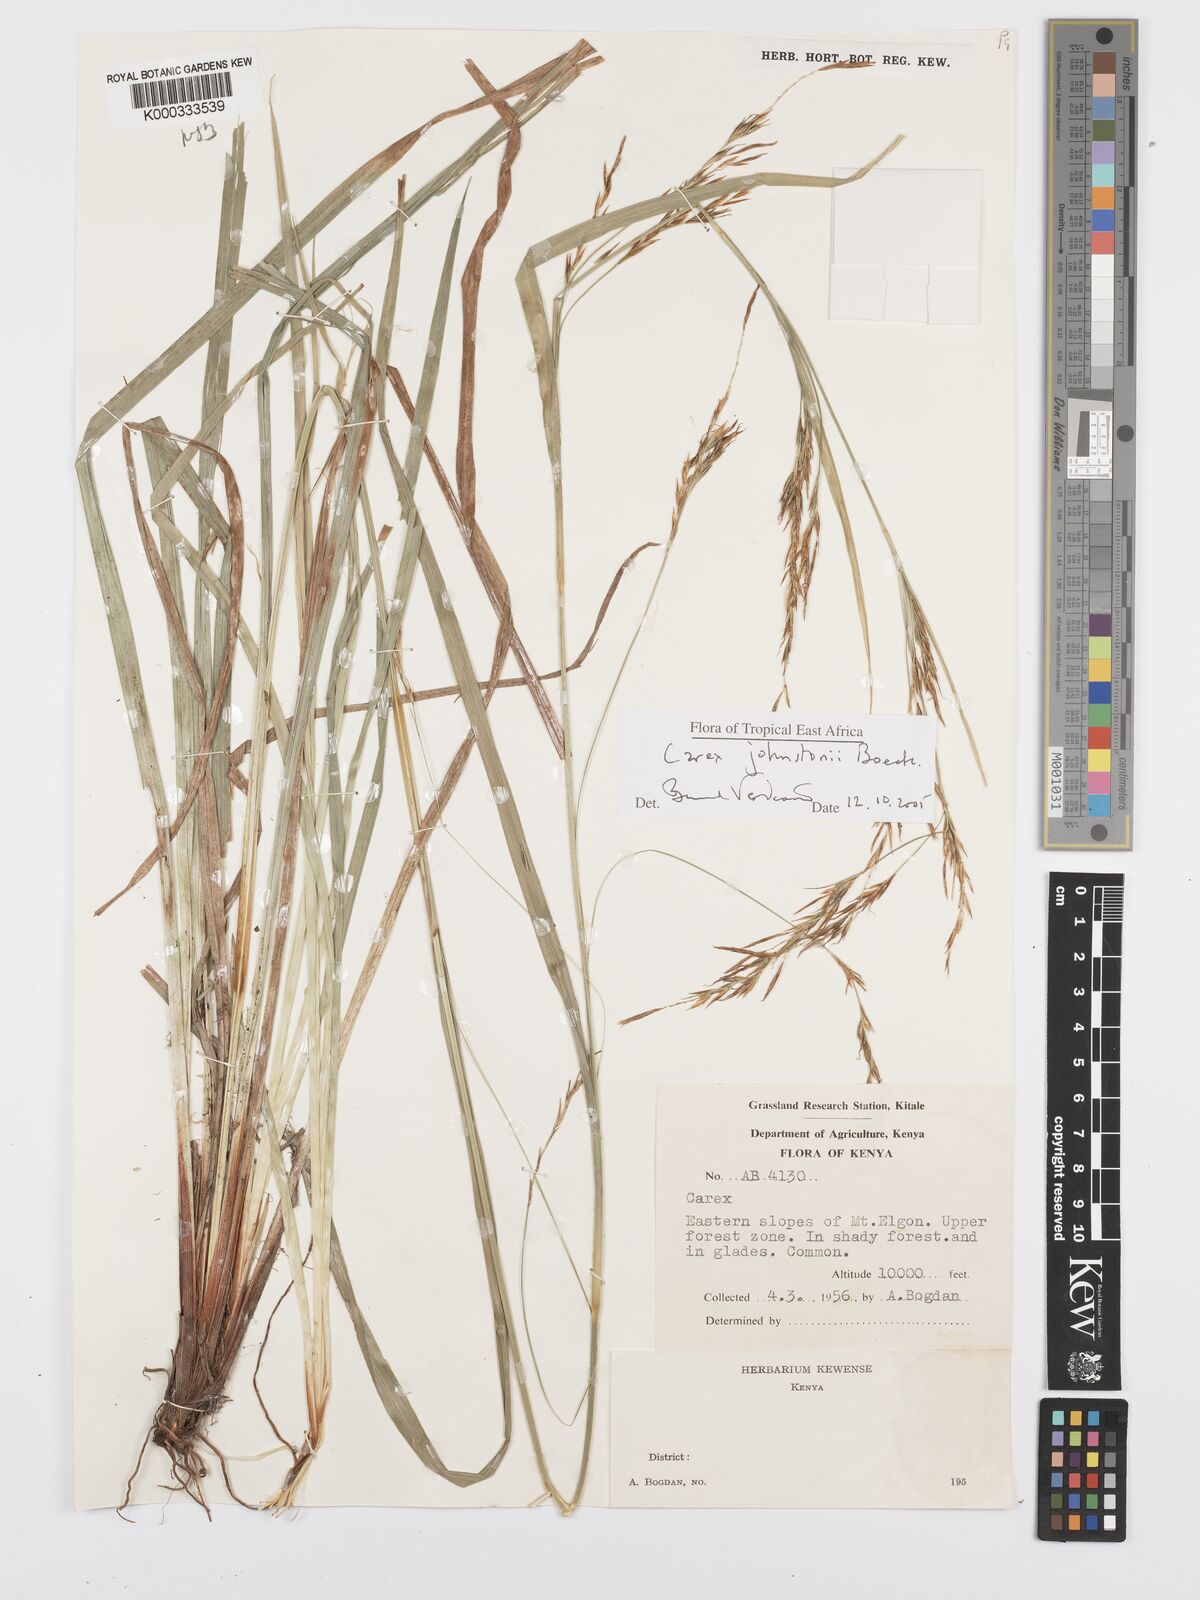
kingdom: Plantae
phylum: Tracheophyta
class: Liliopsida
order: Poales
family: Cyperaceae
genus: Carex
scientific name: Carex johnstonii
